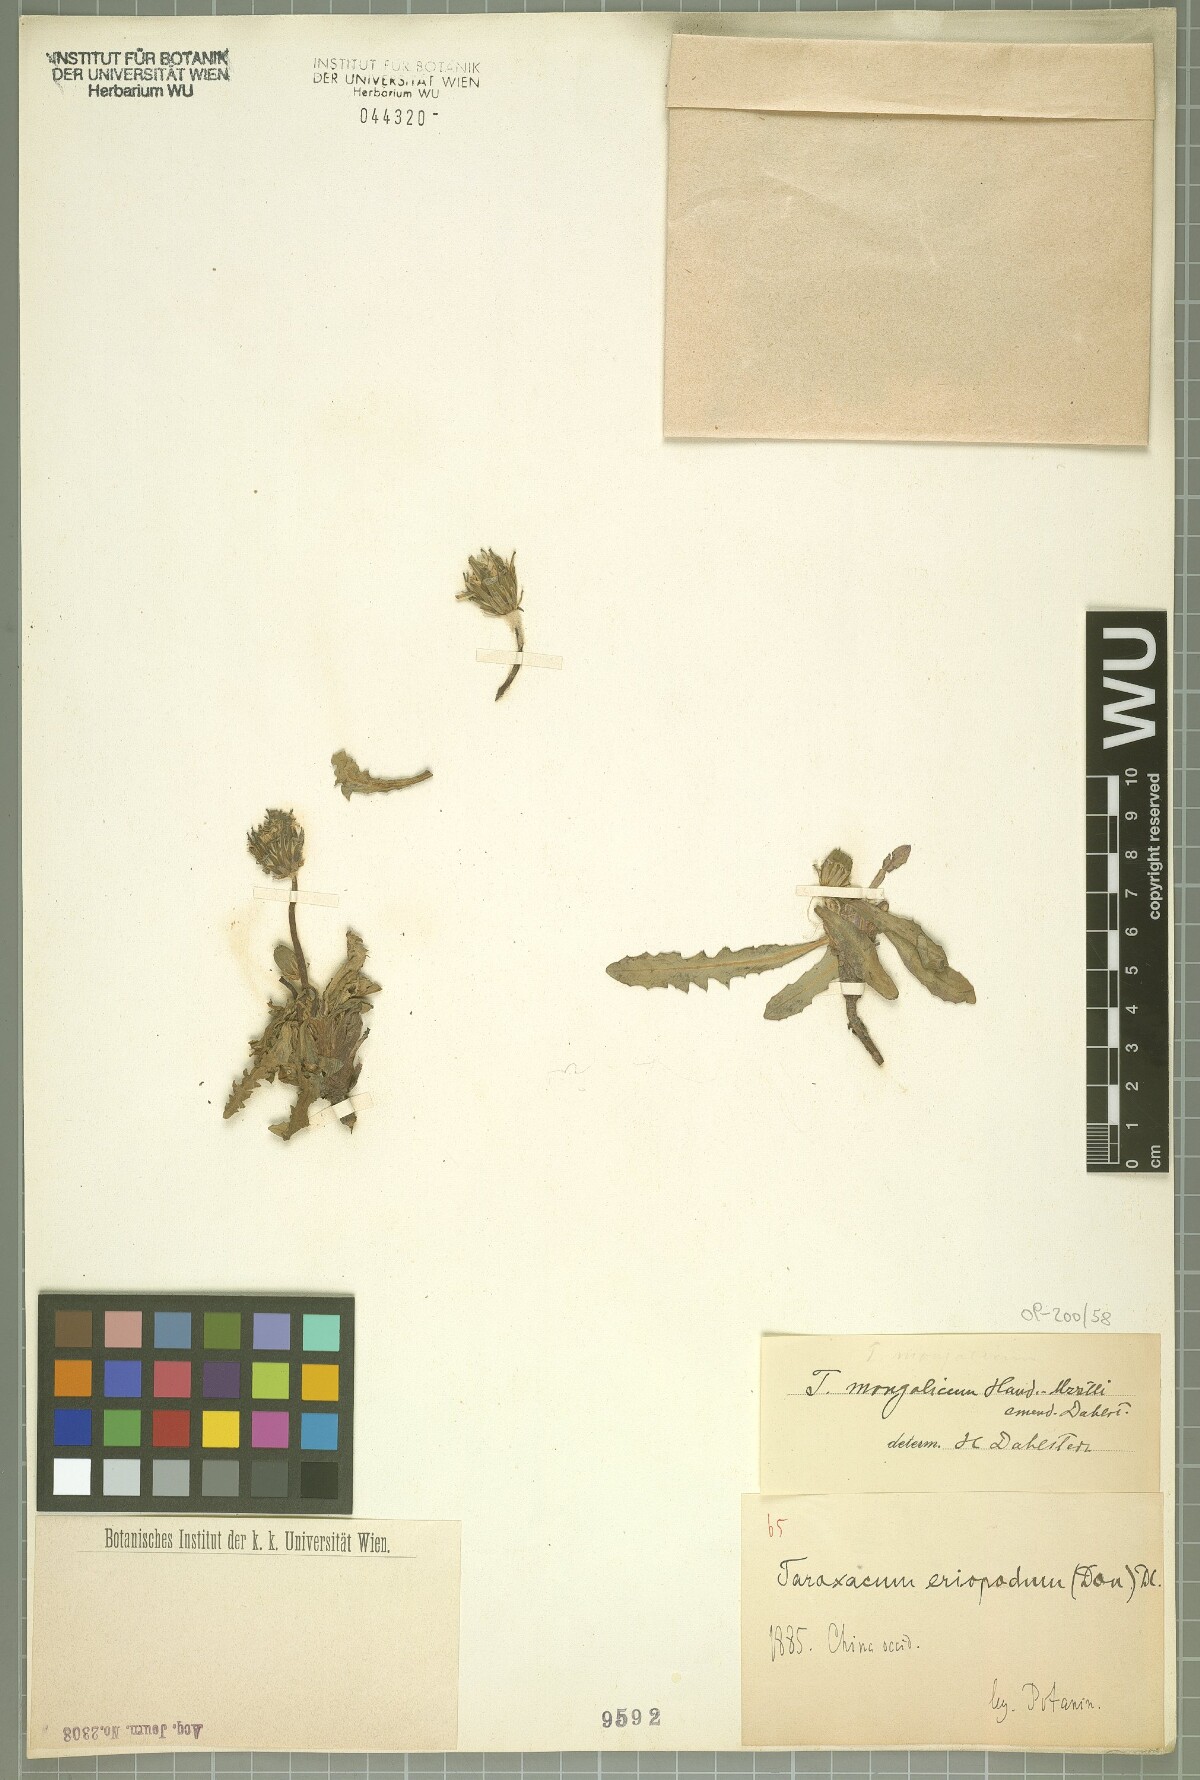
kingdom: Plantae
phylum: Tracheophyta
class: Magnoliopsida
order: Asterales
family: Asteraceae
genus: Taraxacum
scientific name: Taraxacum mongolicum
